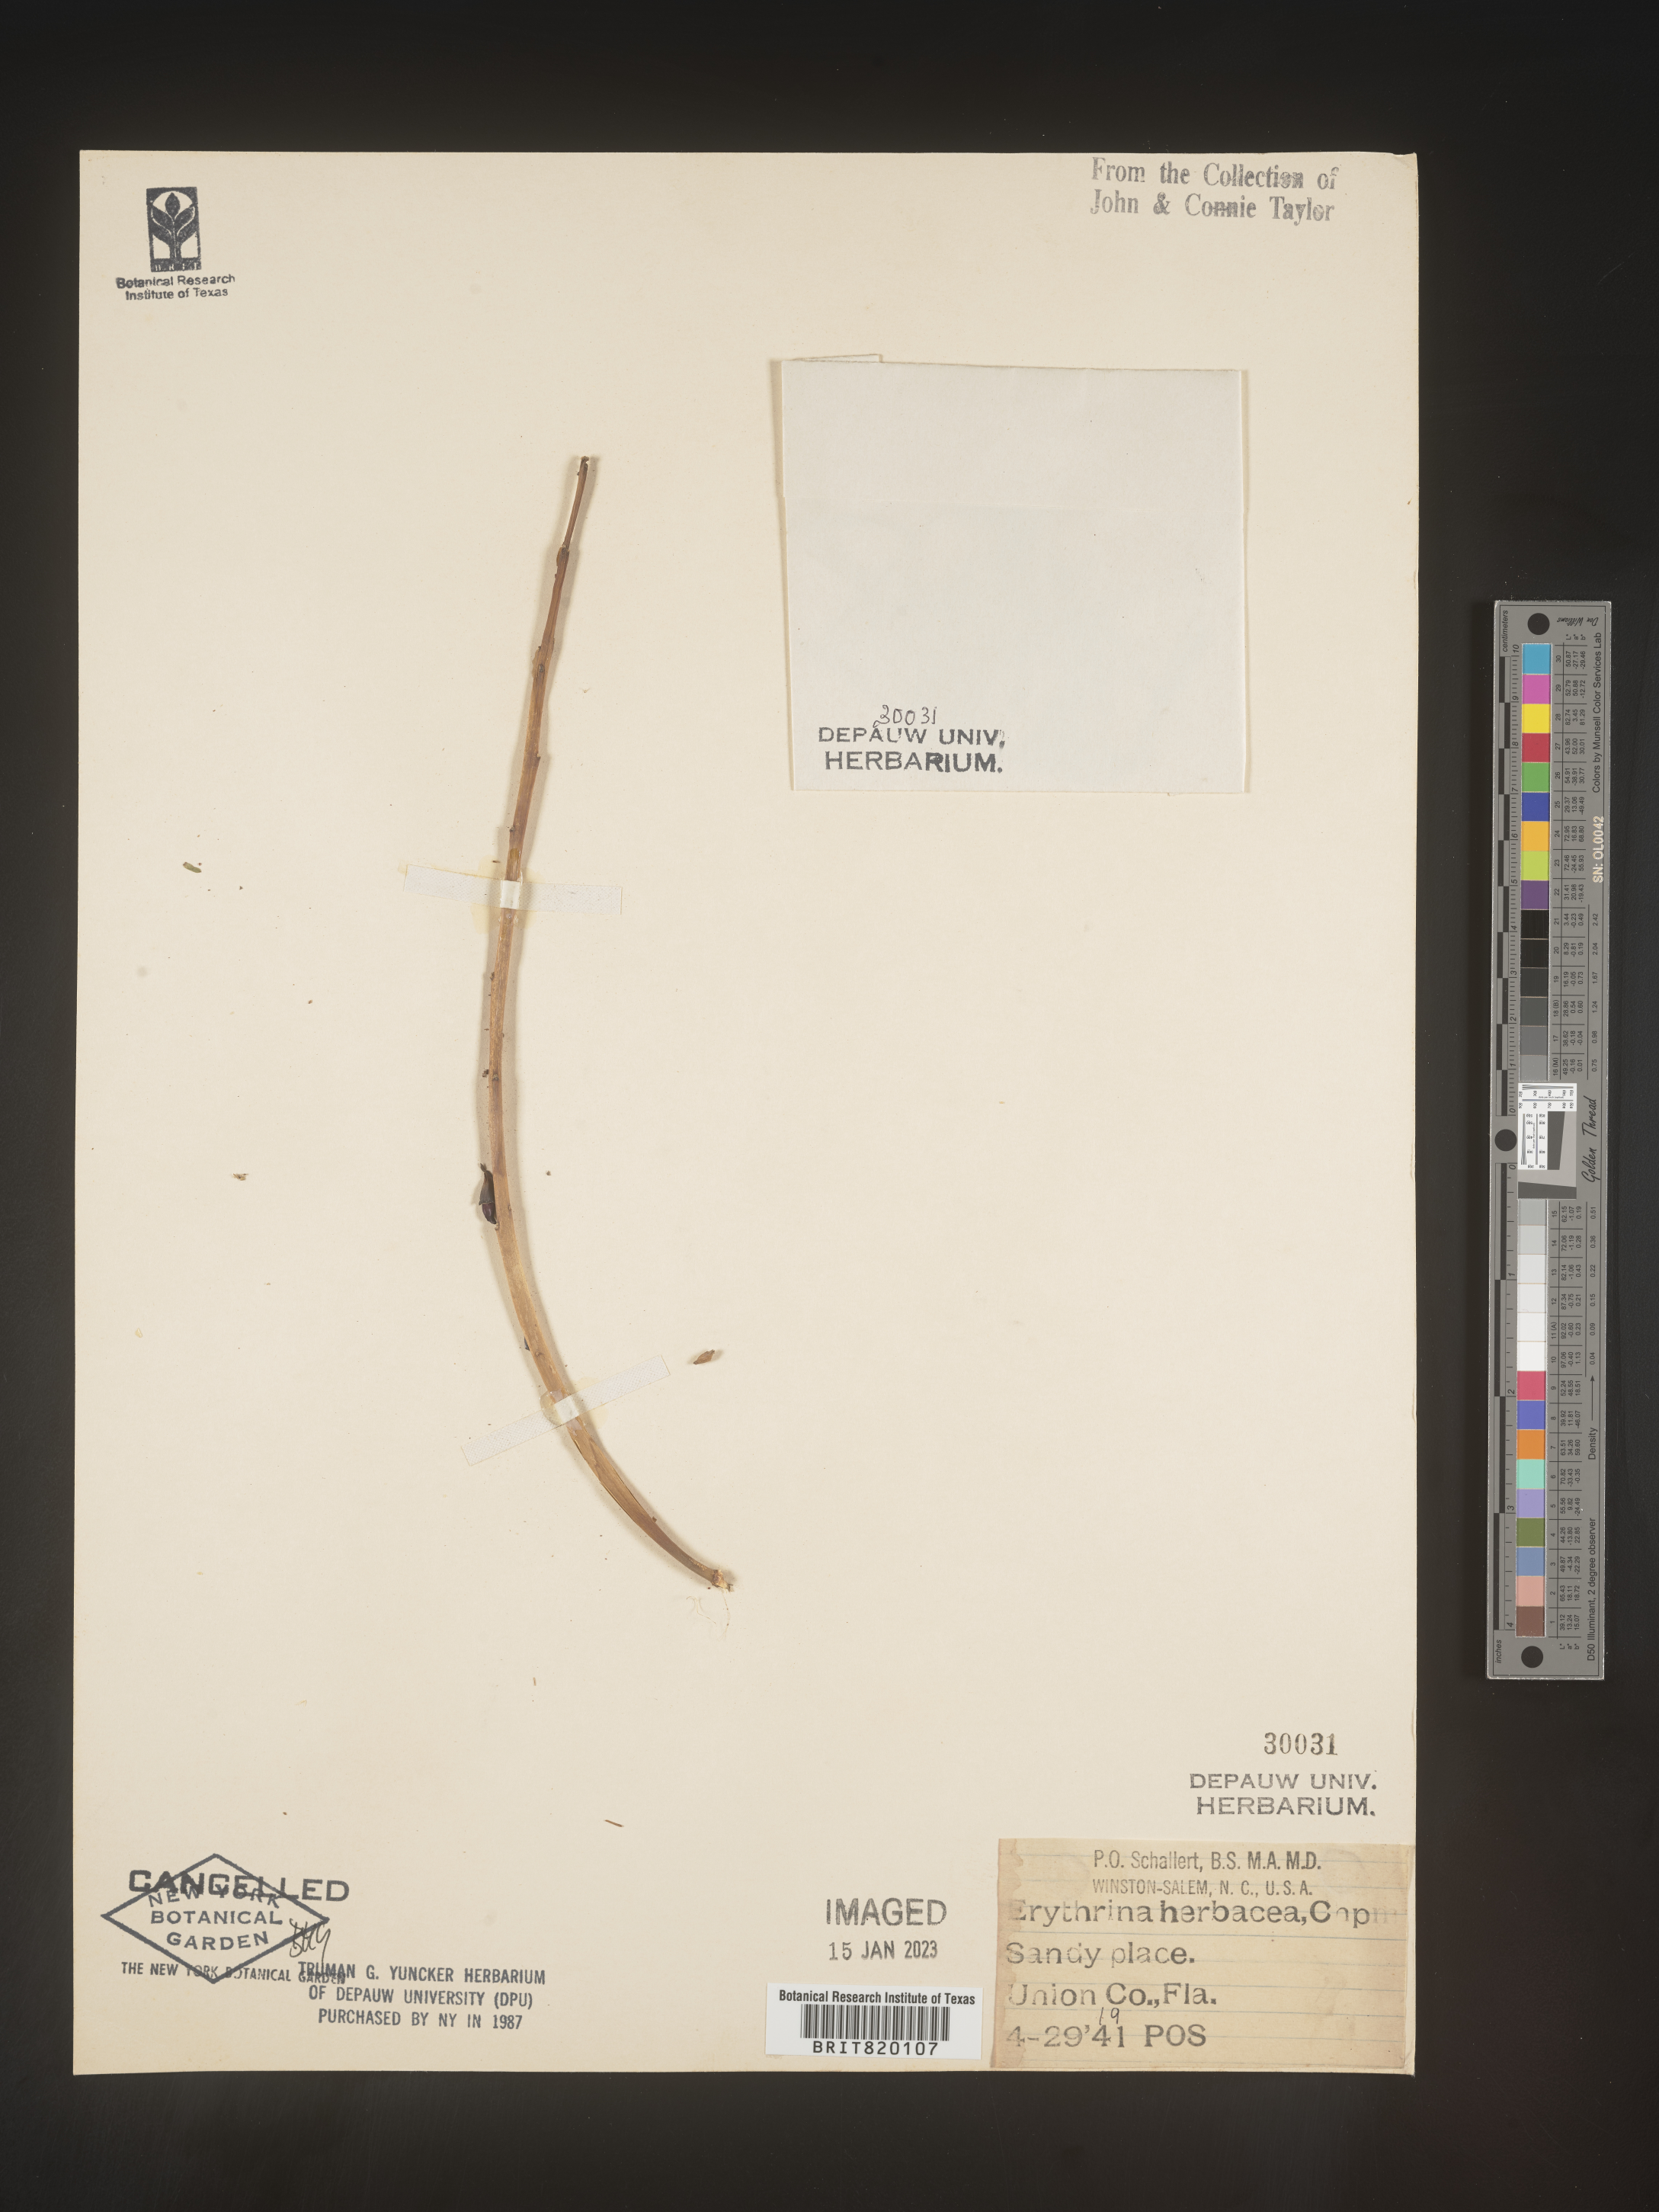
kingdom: Plantae
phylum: Tracheophyta
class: Magnoliopsida
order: Fabales
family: Fabaceae
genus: Erythrina
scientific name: Erythrina herbacea
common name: Coral-bean
